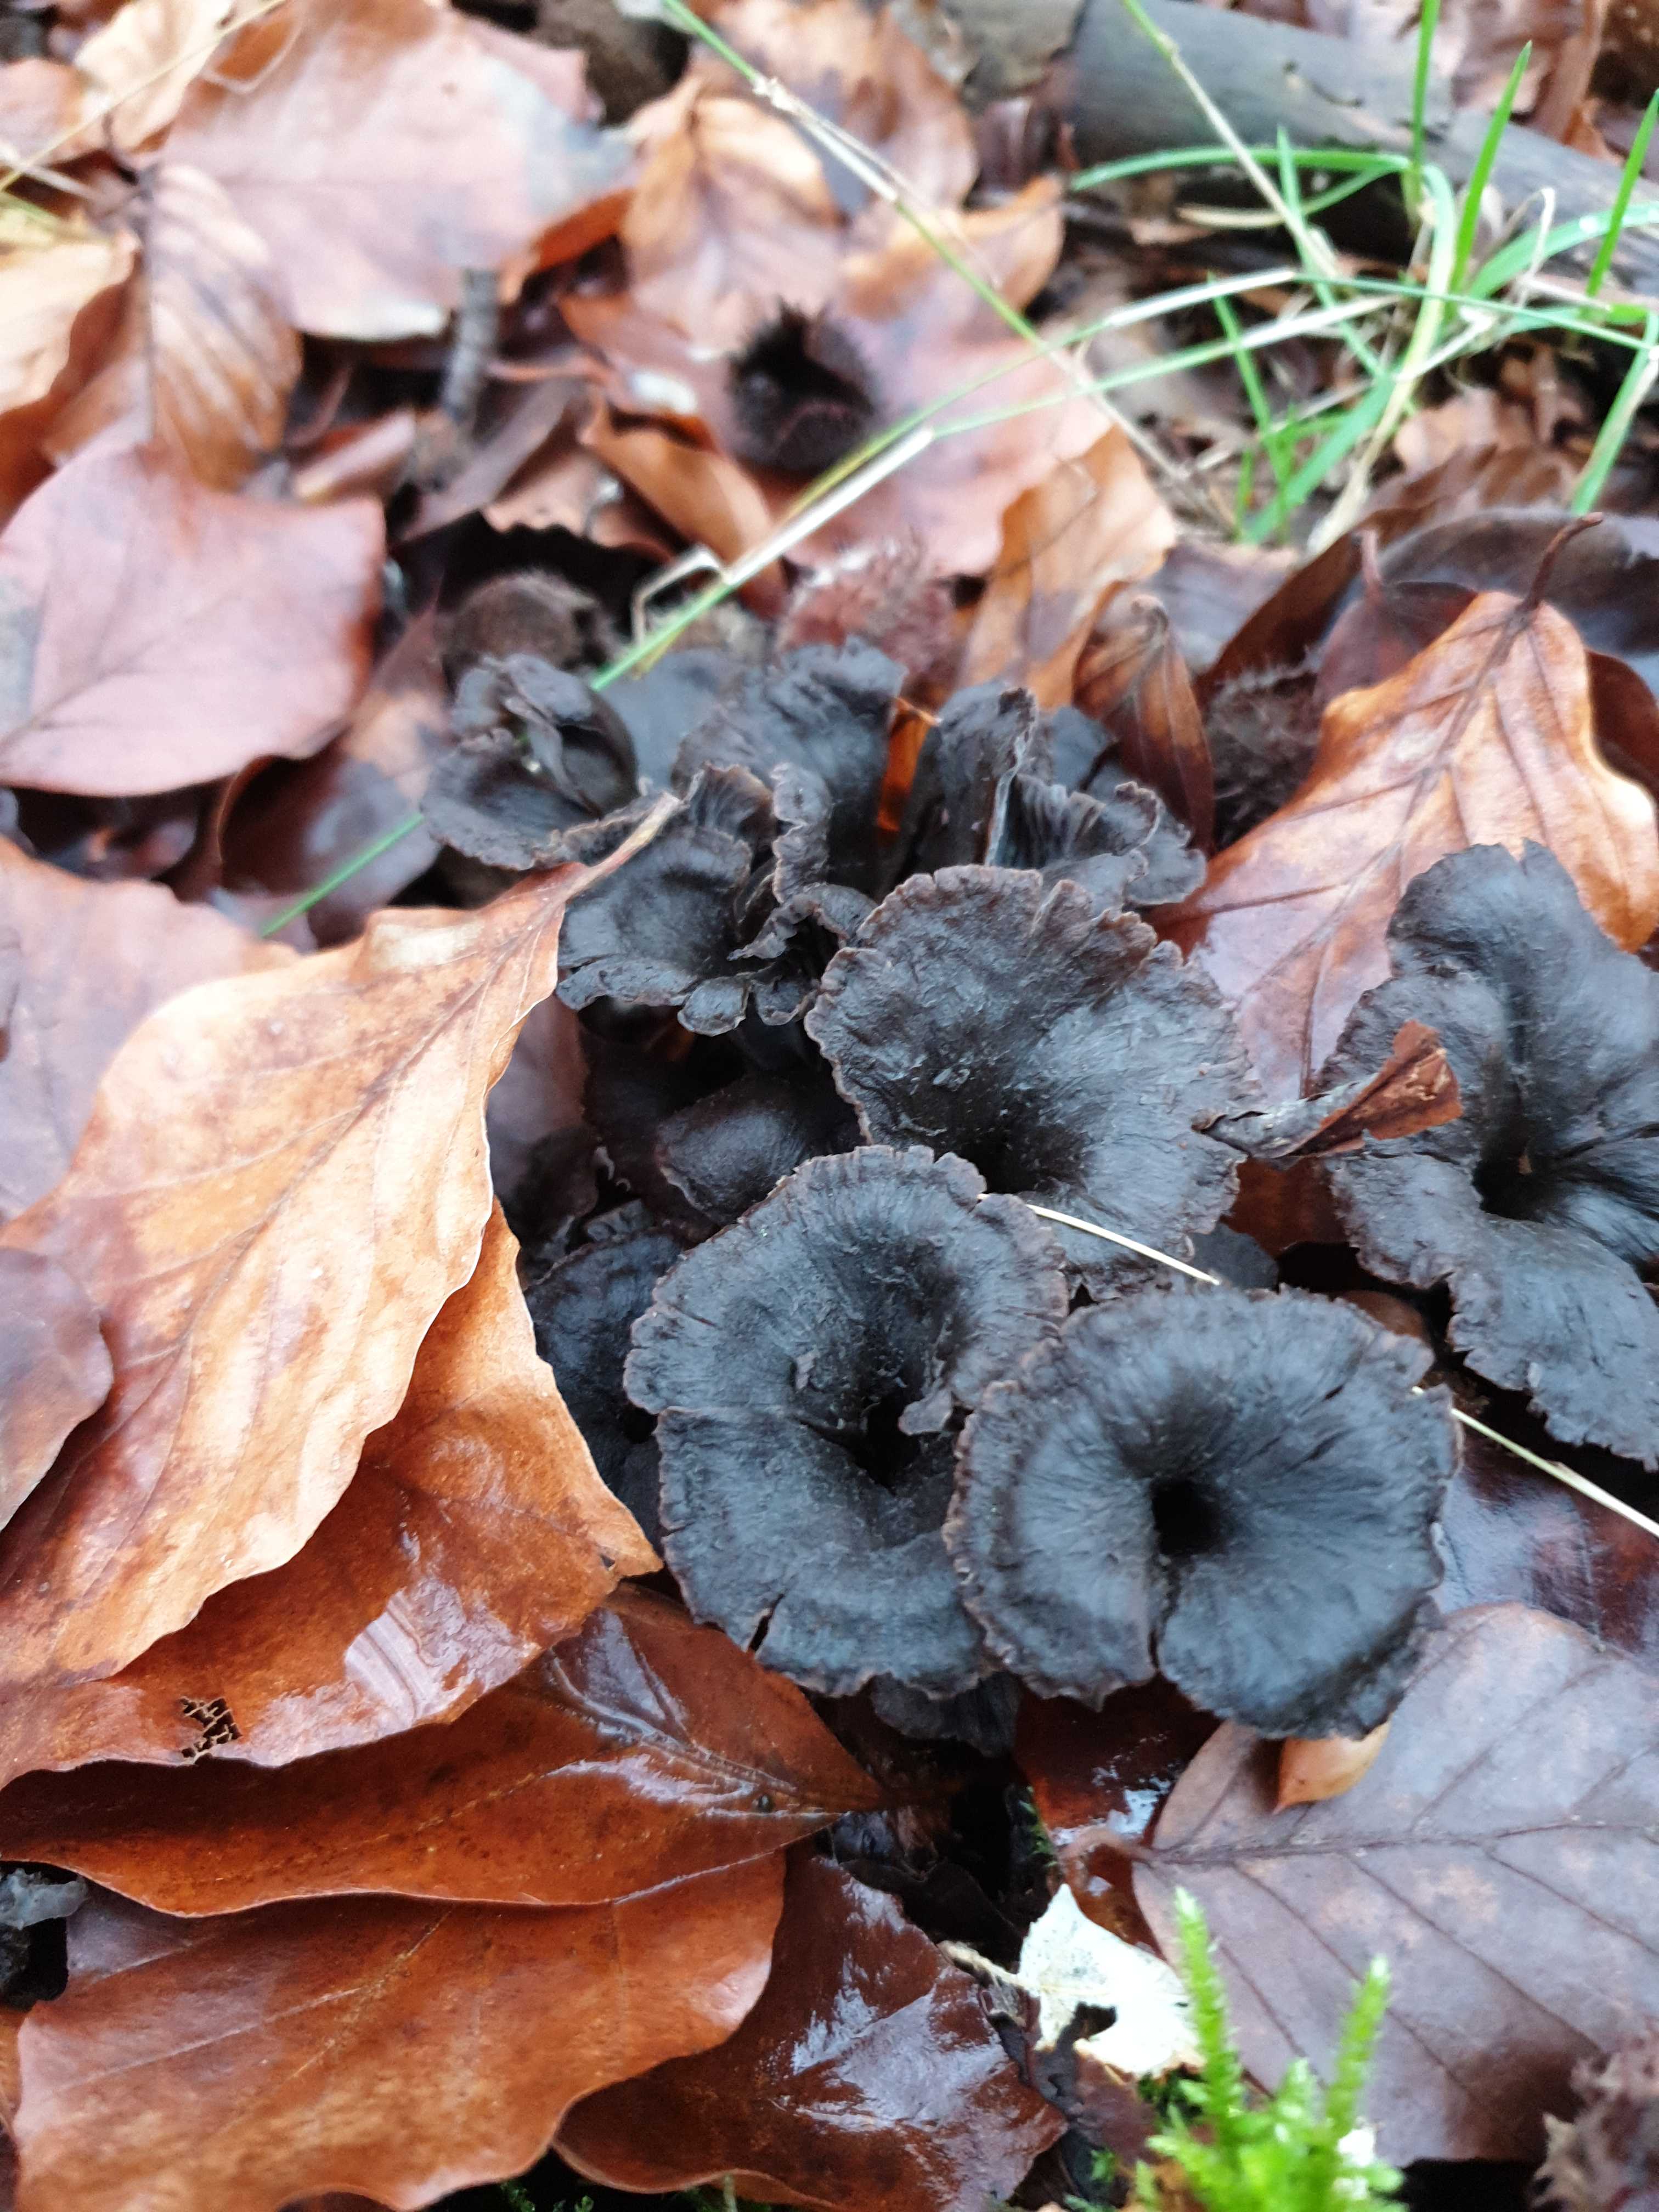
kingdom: Fungi
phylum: Basidiomycota
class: Agaricomycetes
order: Cantharellales
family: Hydnaceae
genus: Cantharellus
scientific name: Cantharellus cinereus
